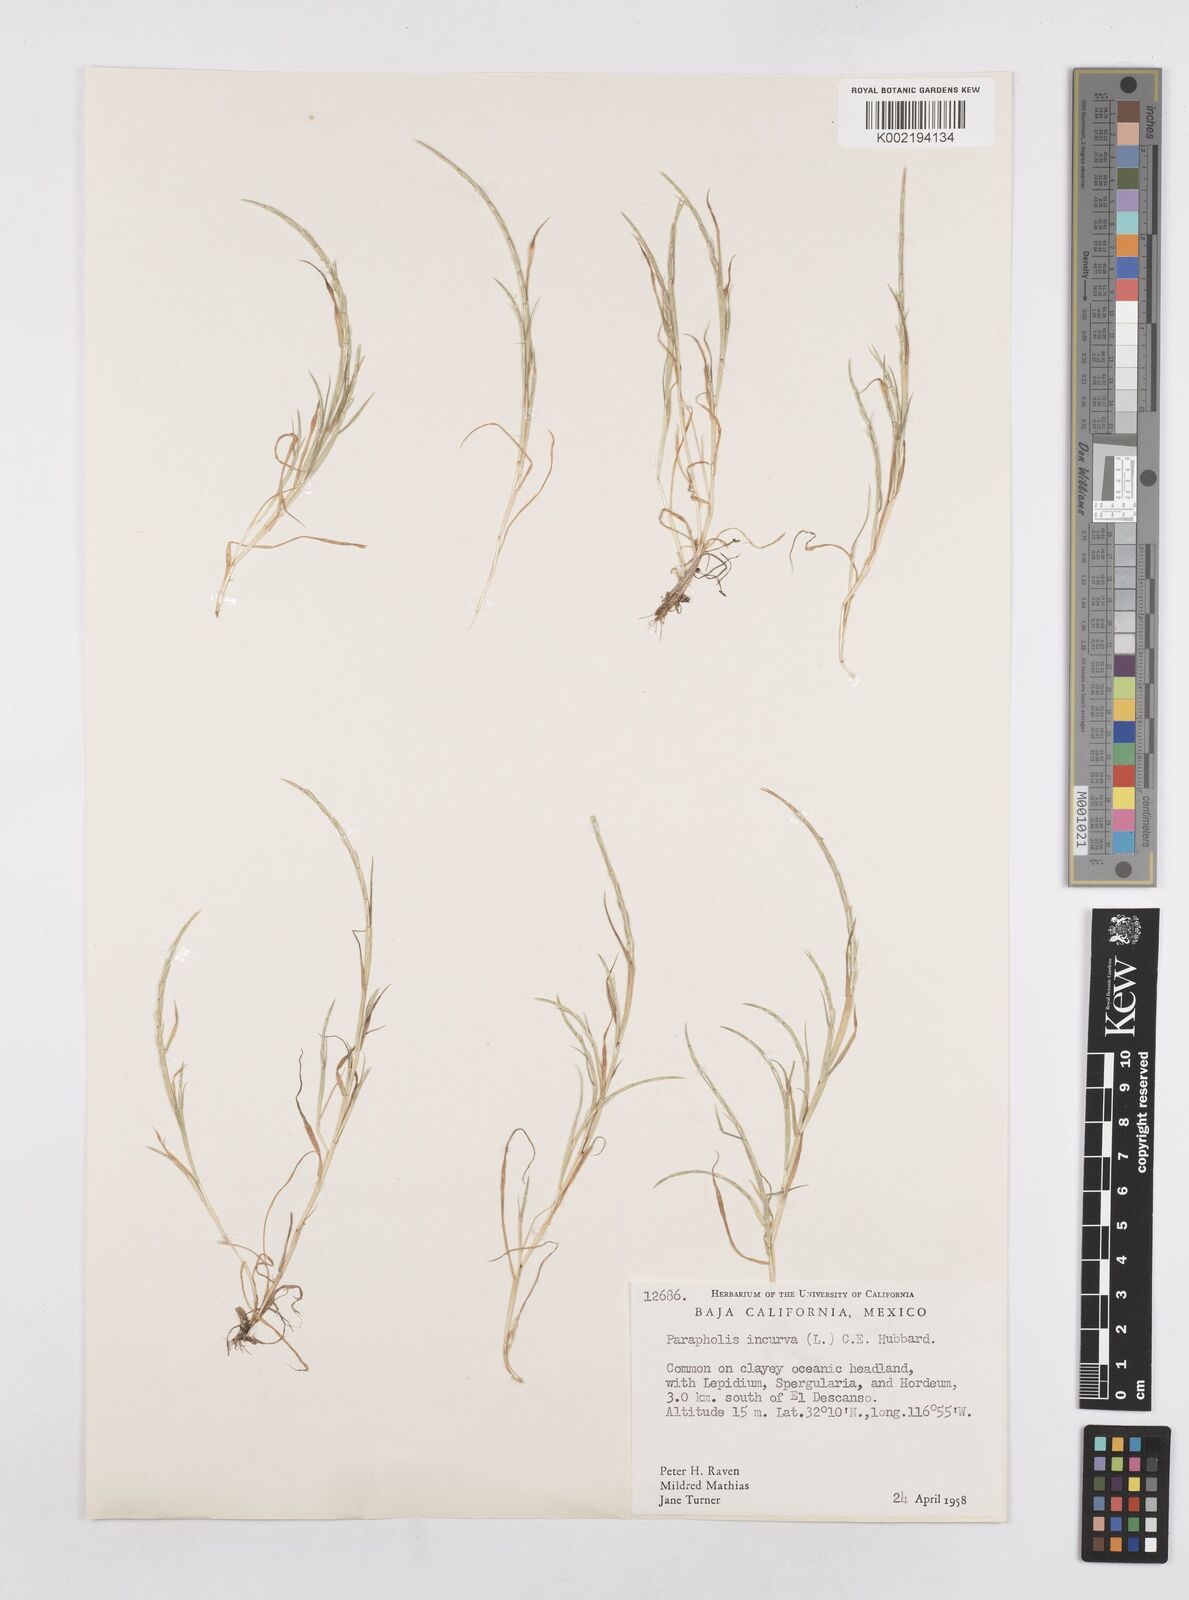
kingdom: Plantae
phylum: Tracheophyta
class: Liliopsida
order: Poales
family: Poaceae
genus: Parapholis
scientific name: Parapholis incurva
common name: Curved sicklegrass
